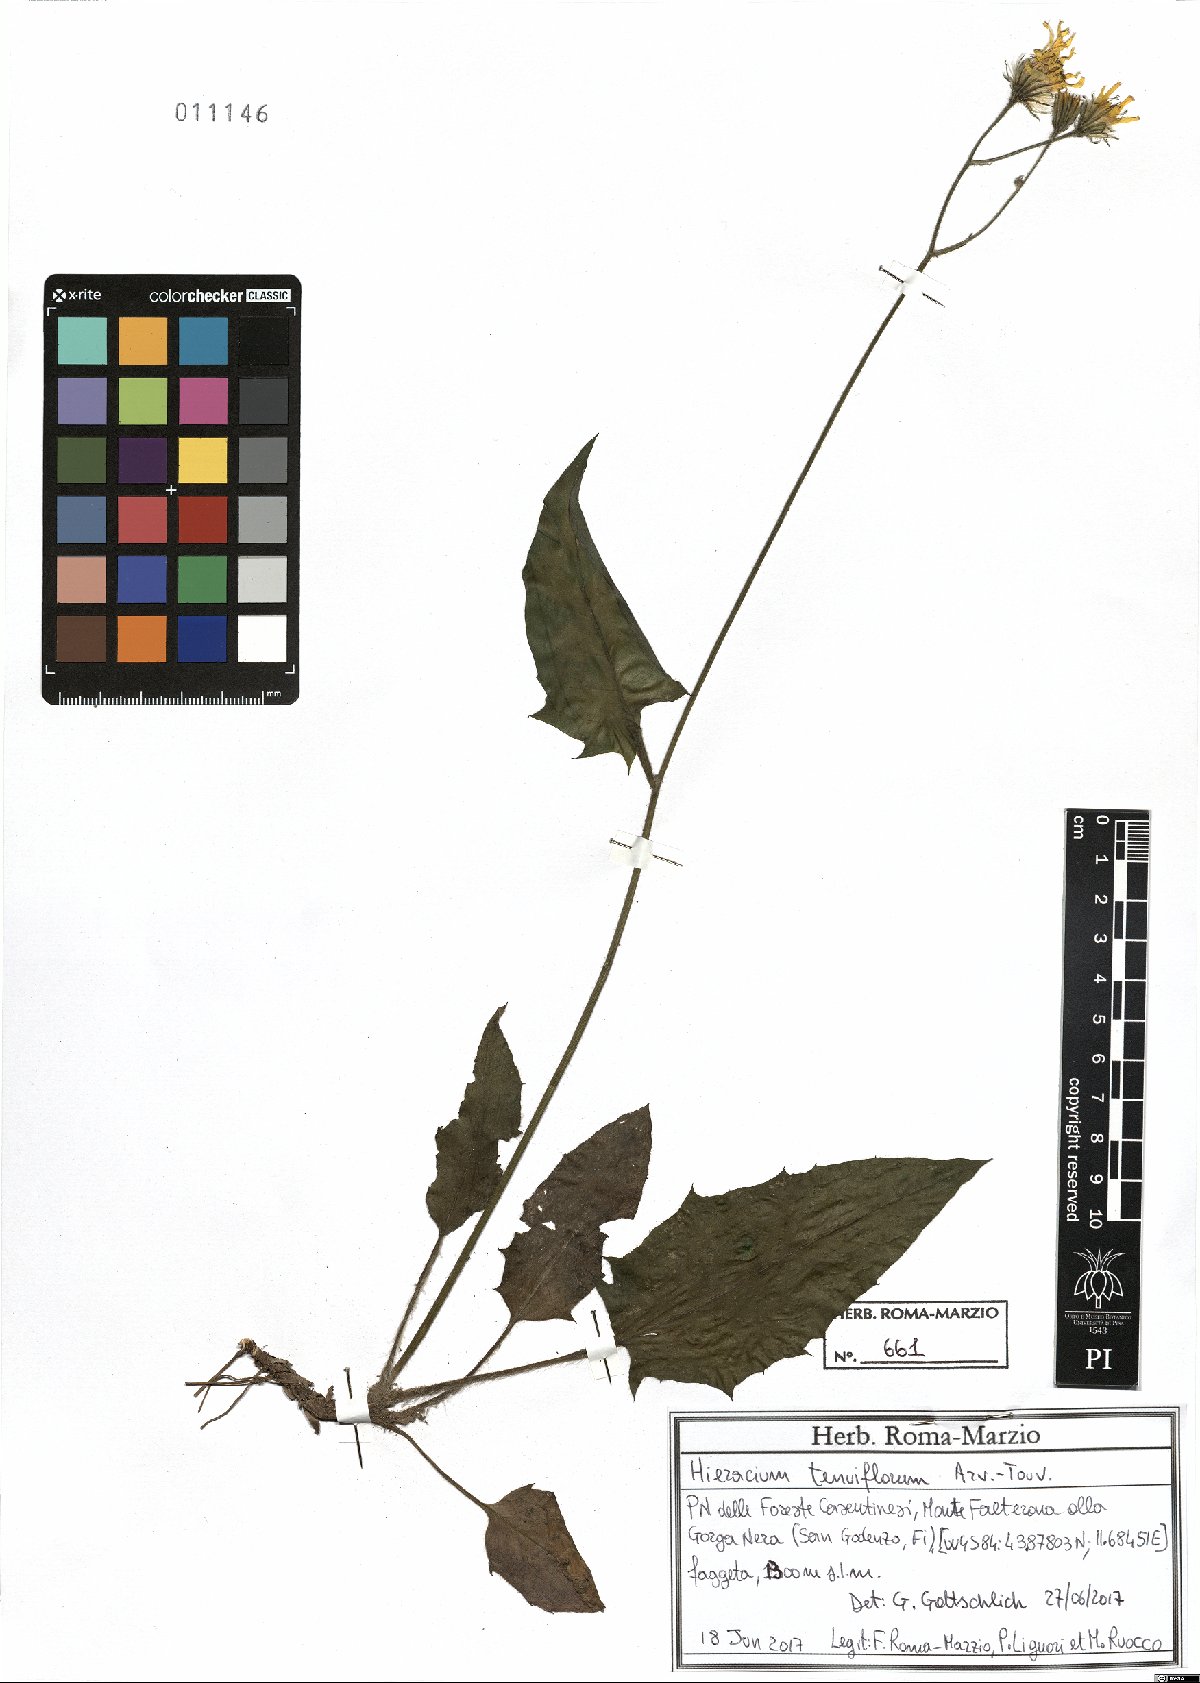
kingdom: Plantae
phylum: Tracheophyta
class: Magnoliopsida
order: Asterales
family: Asteraceae
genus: Hieracium
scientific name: Hieracium tenuiflorum
